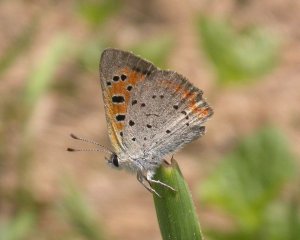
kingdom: Animalia
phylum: Arthropoda
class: Insecta
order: Lepidoptera
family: Lycaenidae
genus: Lycaena
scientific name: Lycaena phlaeas
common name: American Copper
